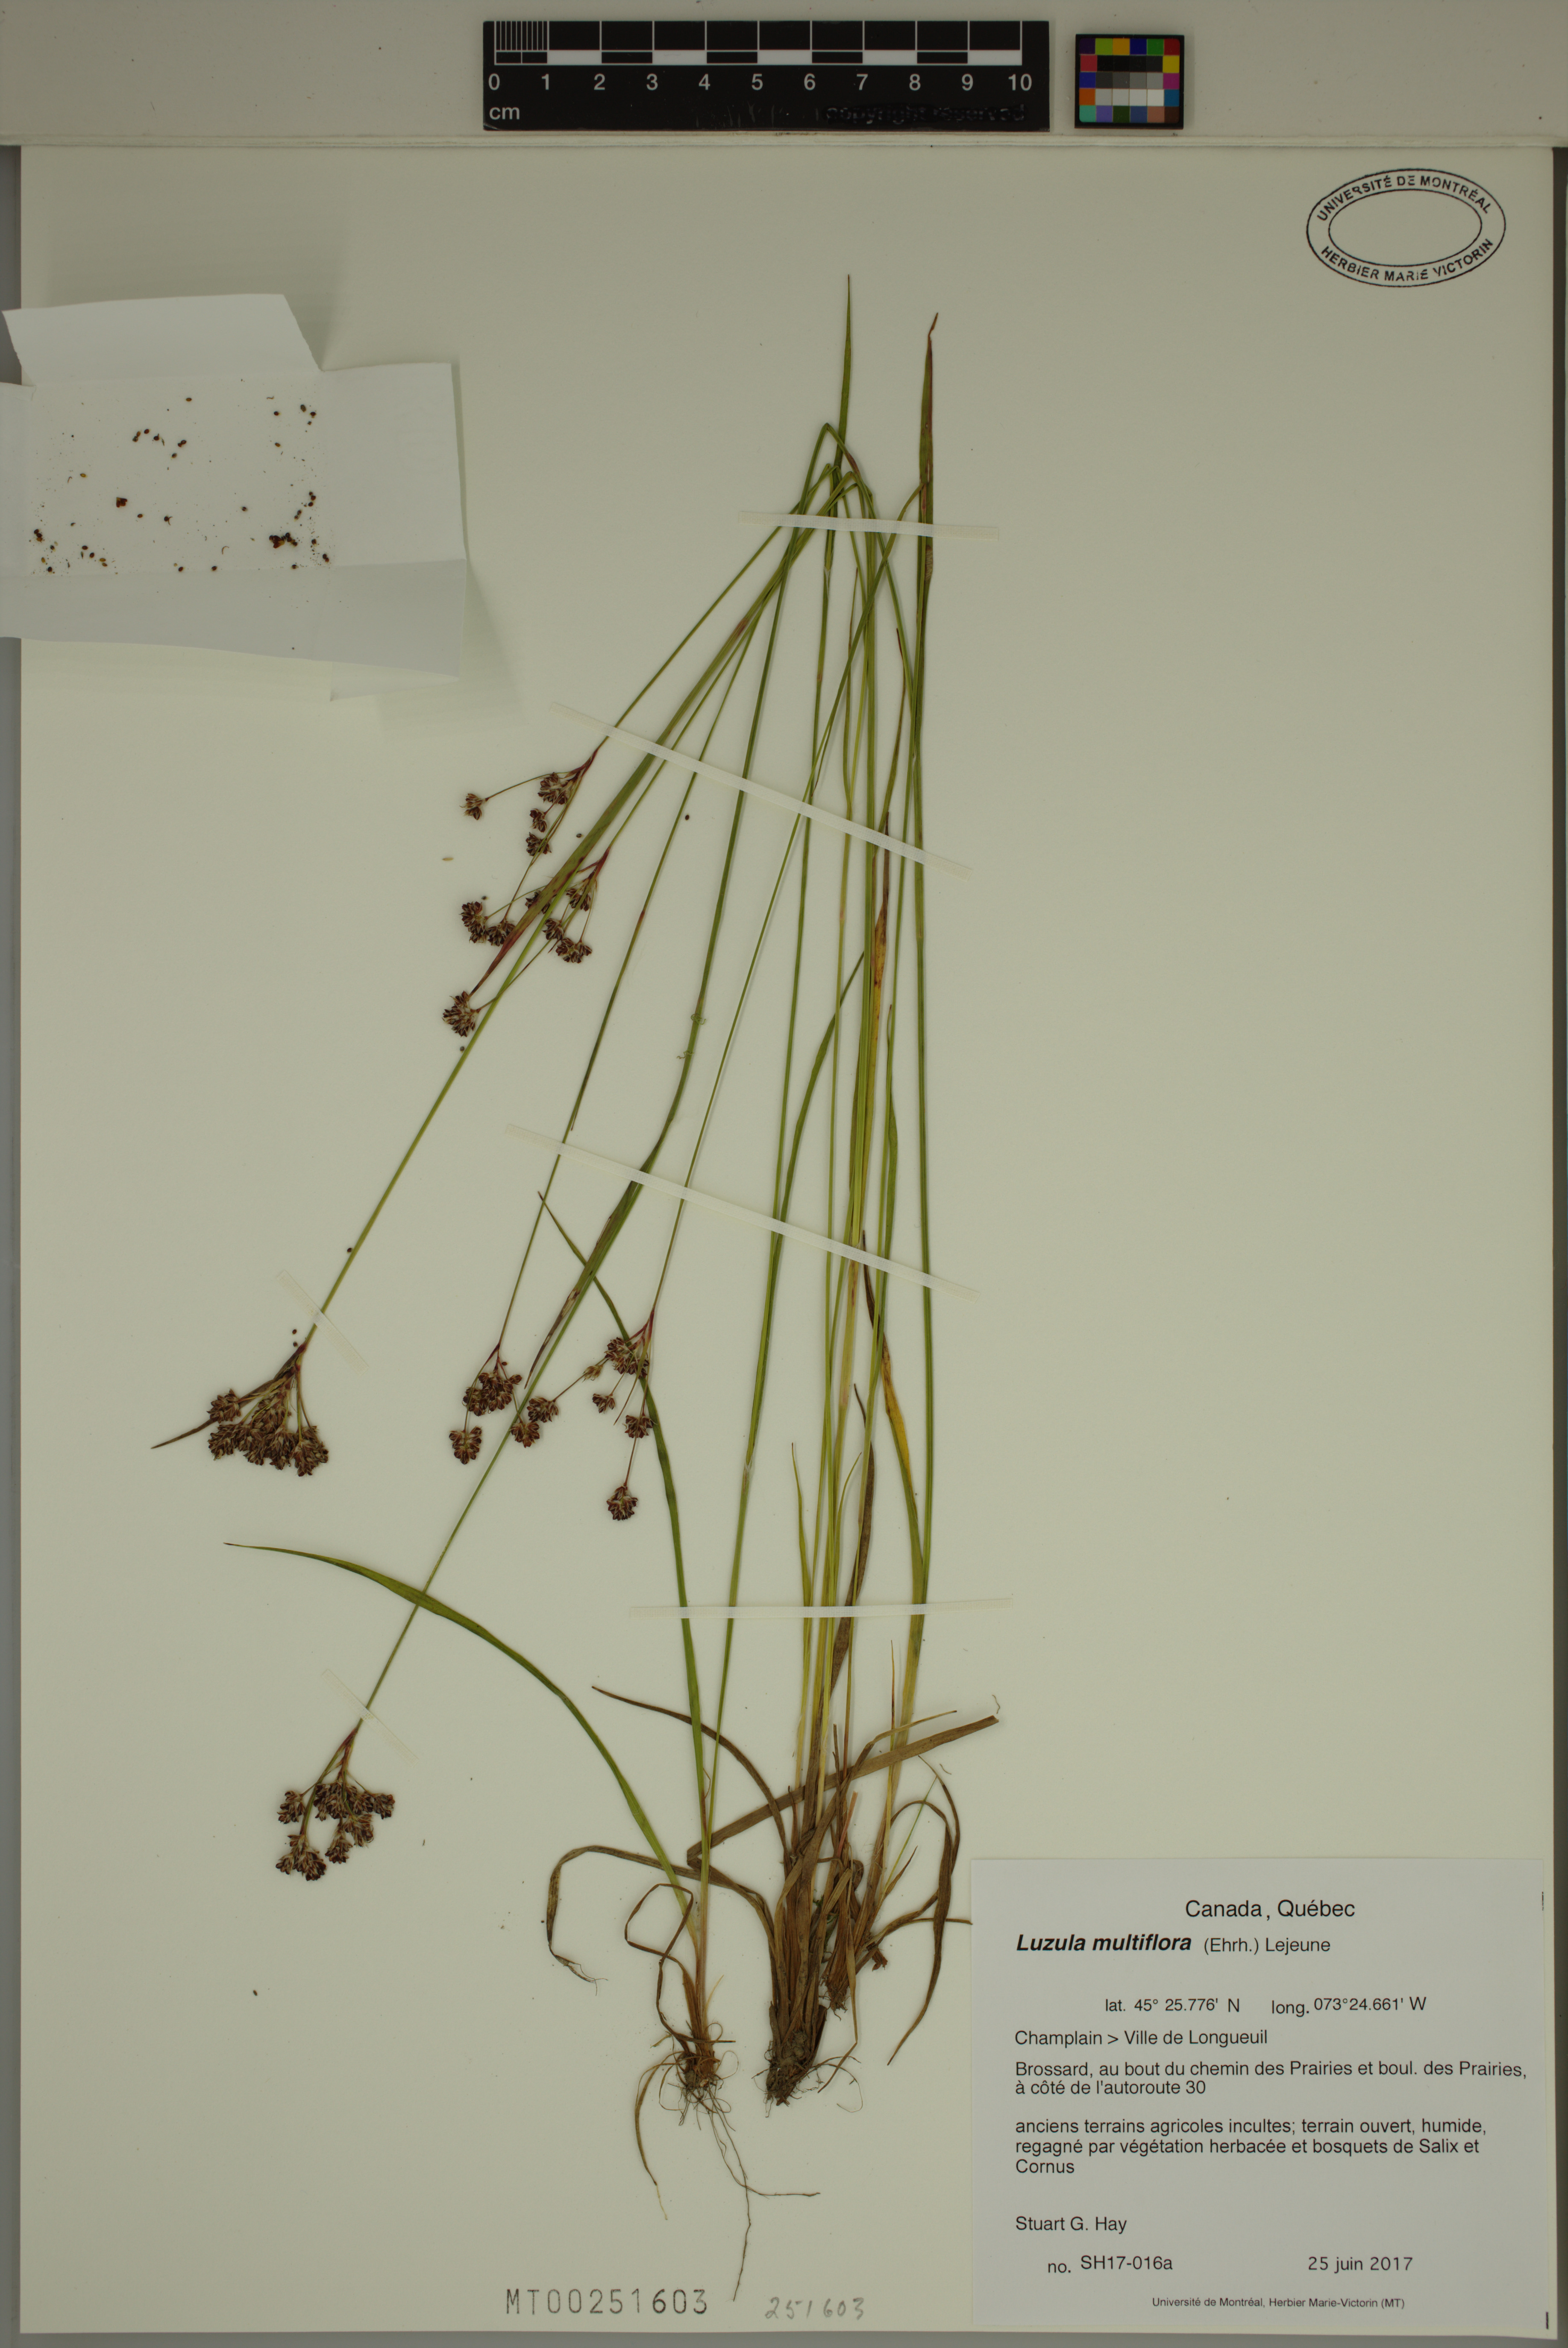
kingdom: Plantae
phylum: Tracheophyta
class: Liliopsida
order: Poales
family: Juncaceae
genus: Luzula
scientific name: Luzula multiflora
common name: Heath wood-rush
